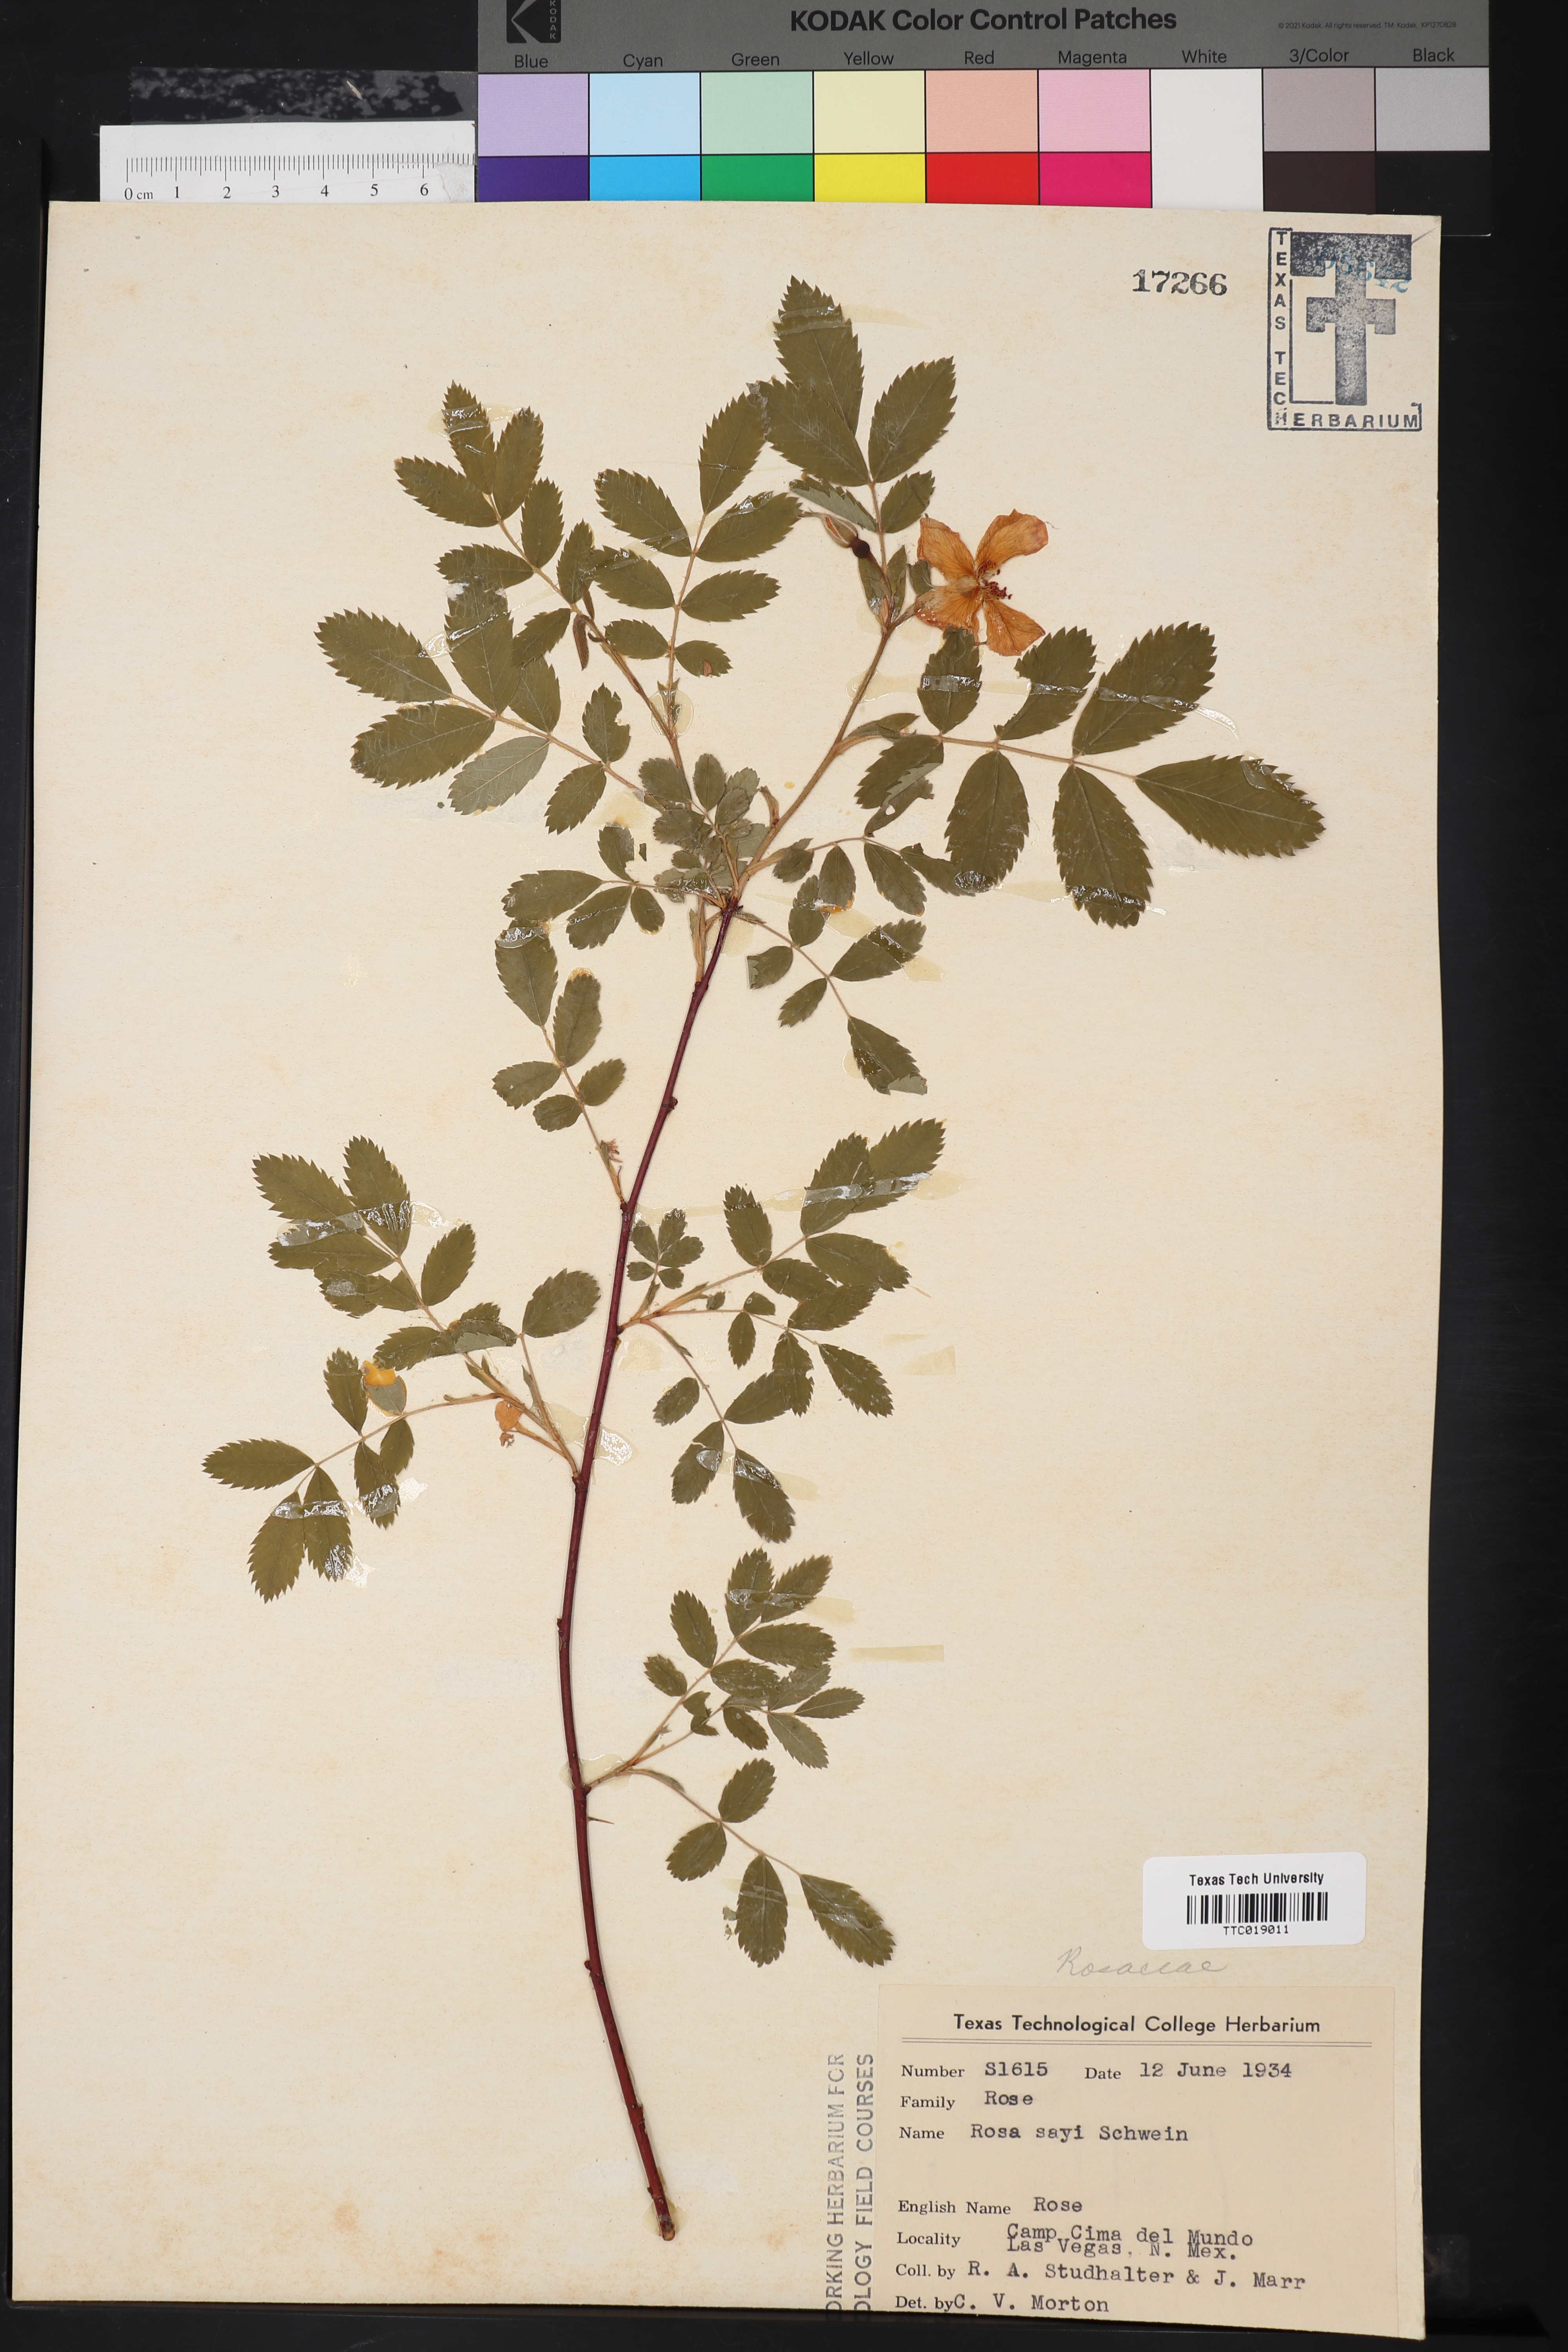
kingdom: Plantae
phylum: Tracheophyta
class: Magnoliopsida
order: Rosales
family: Rosaceae
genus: Rosa
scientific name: Rosa acicularis
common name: Prickly rose
